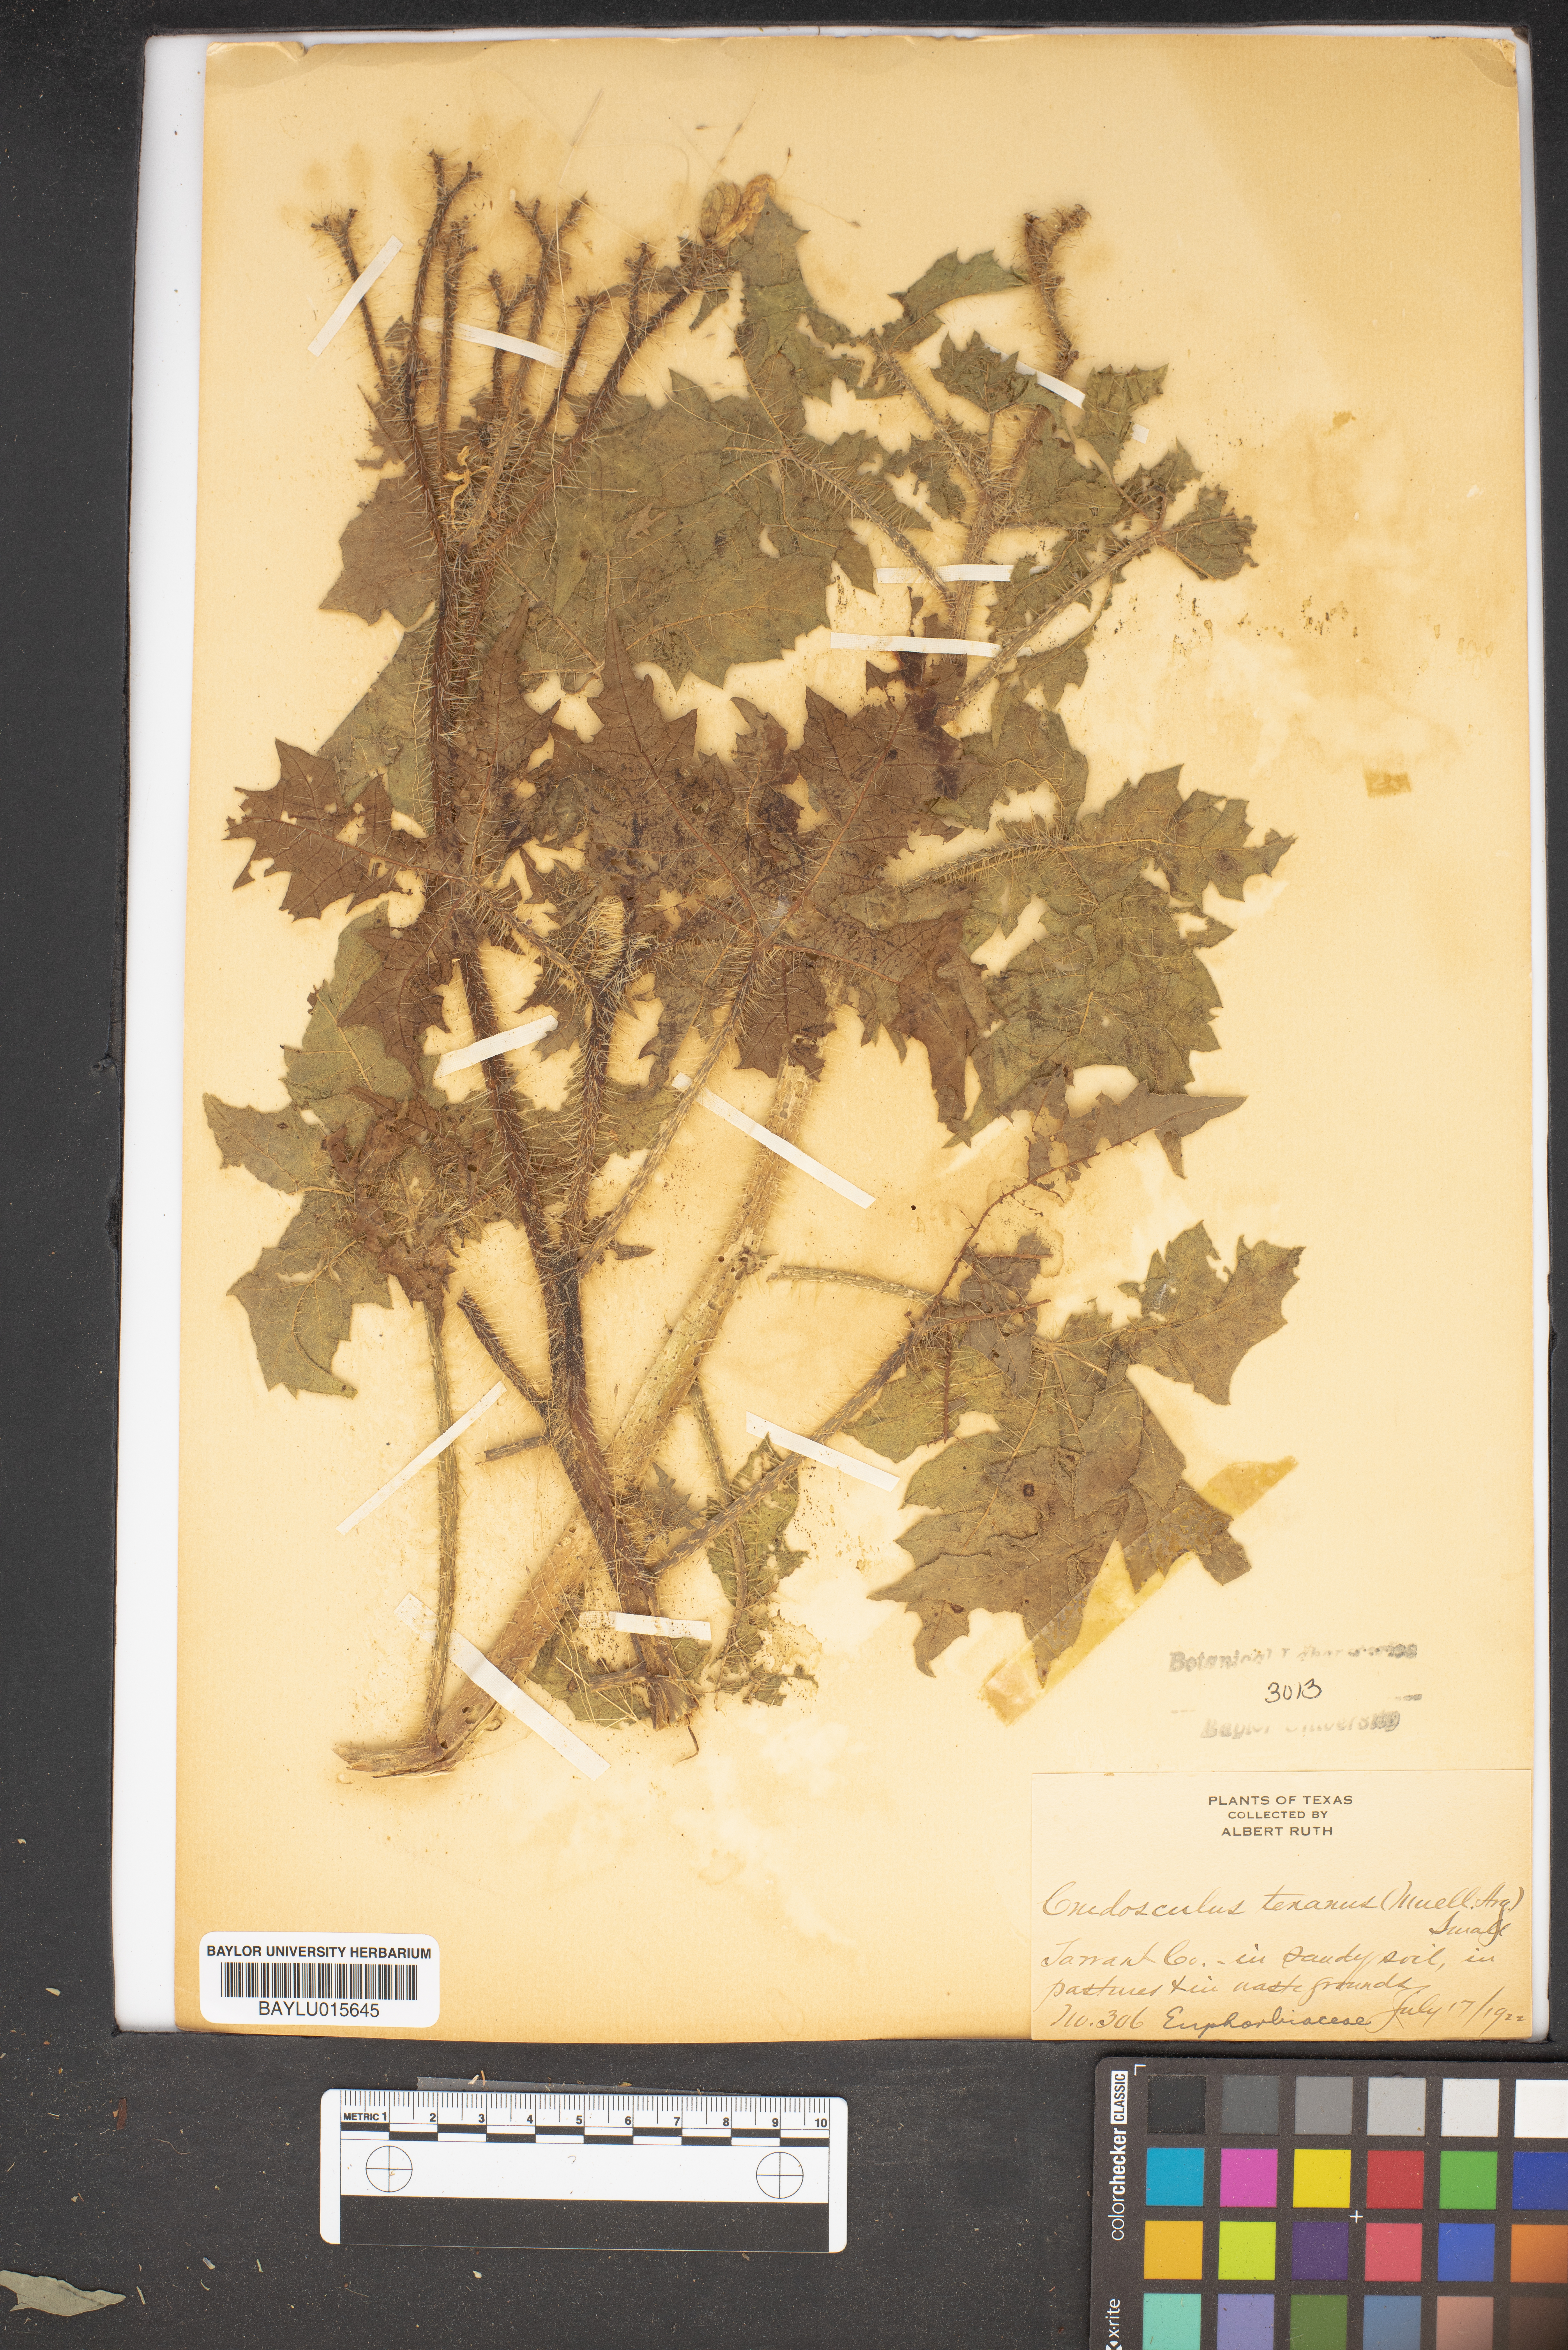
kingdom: Plantae
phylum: Tracheophyta
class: Magnoliopsida
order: Malpighiales
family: Euphorbiaceae
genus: Cnidoscolus
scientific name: Cnidoscolus texanus
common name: Texas bull-nettle
